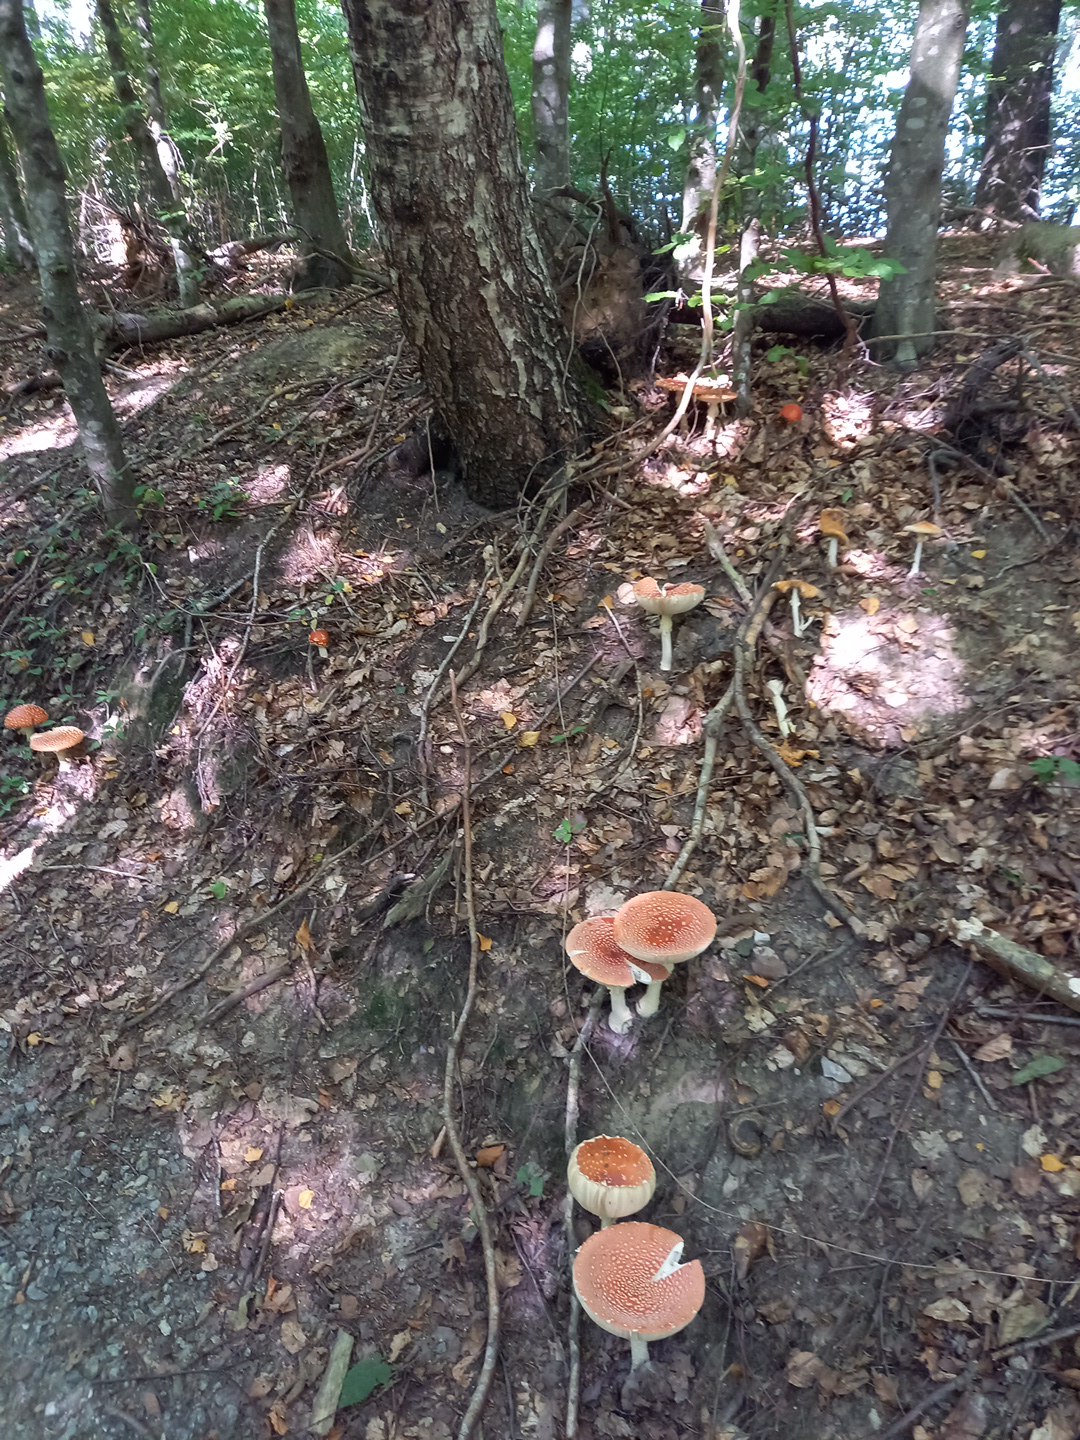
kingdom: Fungi
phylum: Basidiomycota
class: Agaricomycetes
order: Agaricales
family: Amanitaceae
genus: Amanita
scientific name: Amanita muscaria
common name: rød fluesvamp
